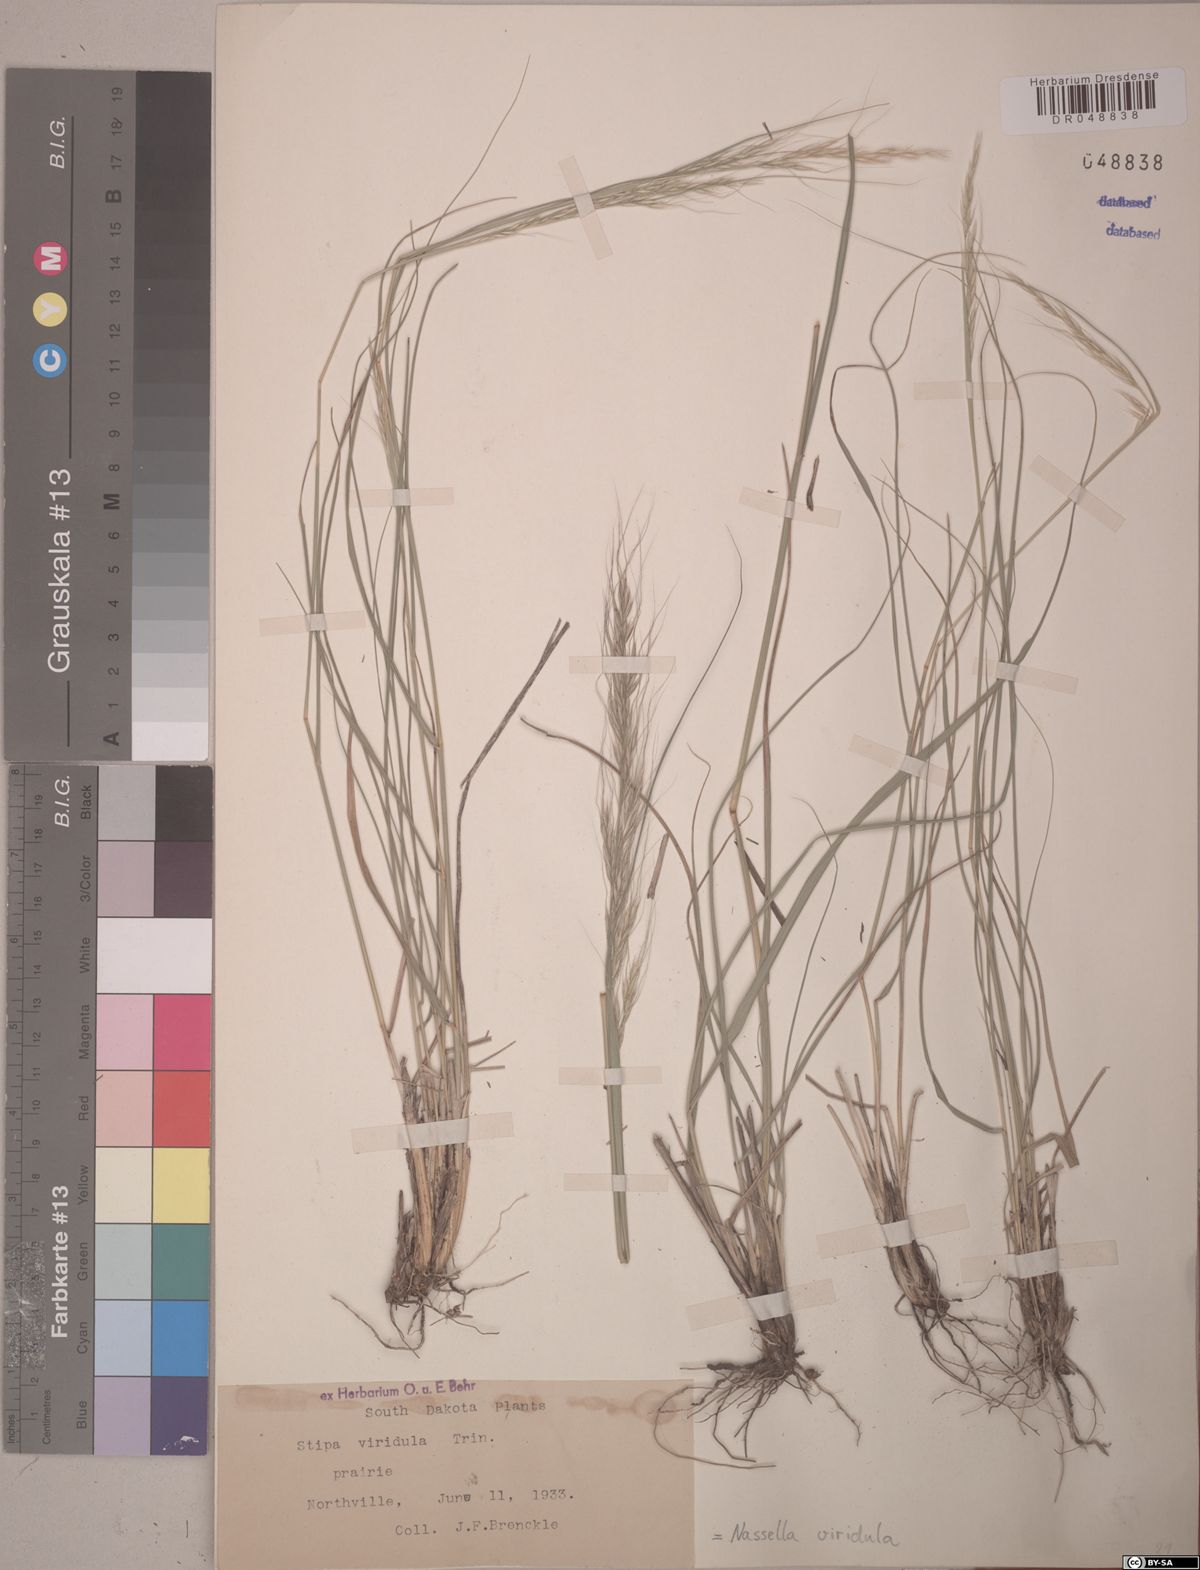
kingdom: Plantae
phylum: Tracheophyta
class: Liliopsida
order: Poales
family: Poaceae
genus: Nassella
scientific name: Nassella viridula
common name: Green needlegrass
